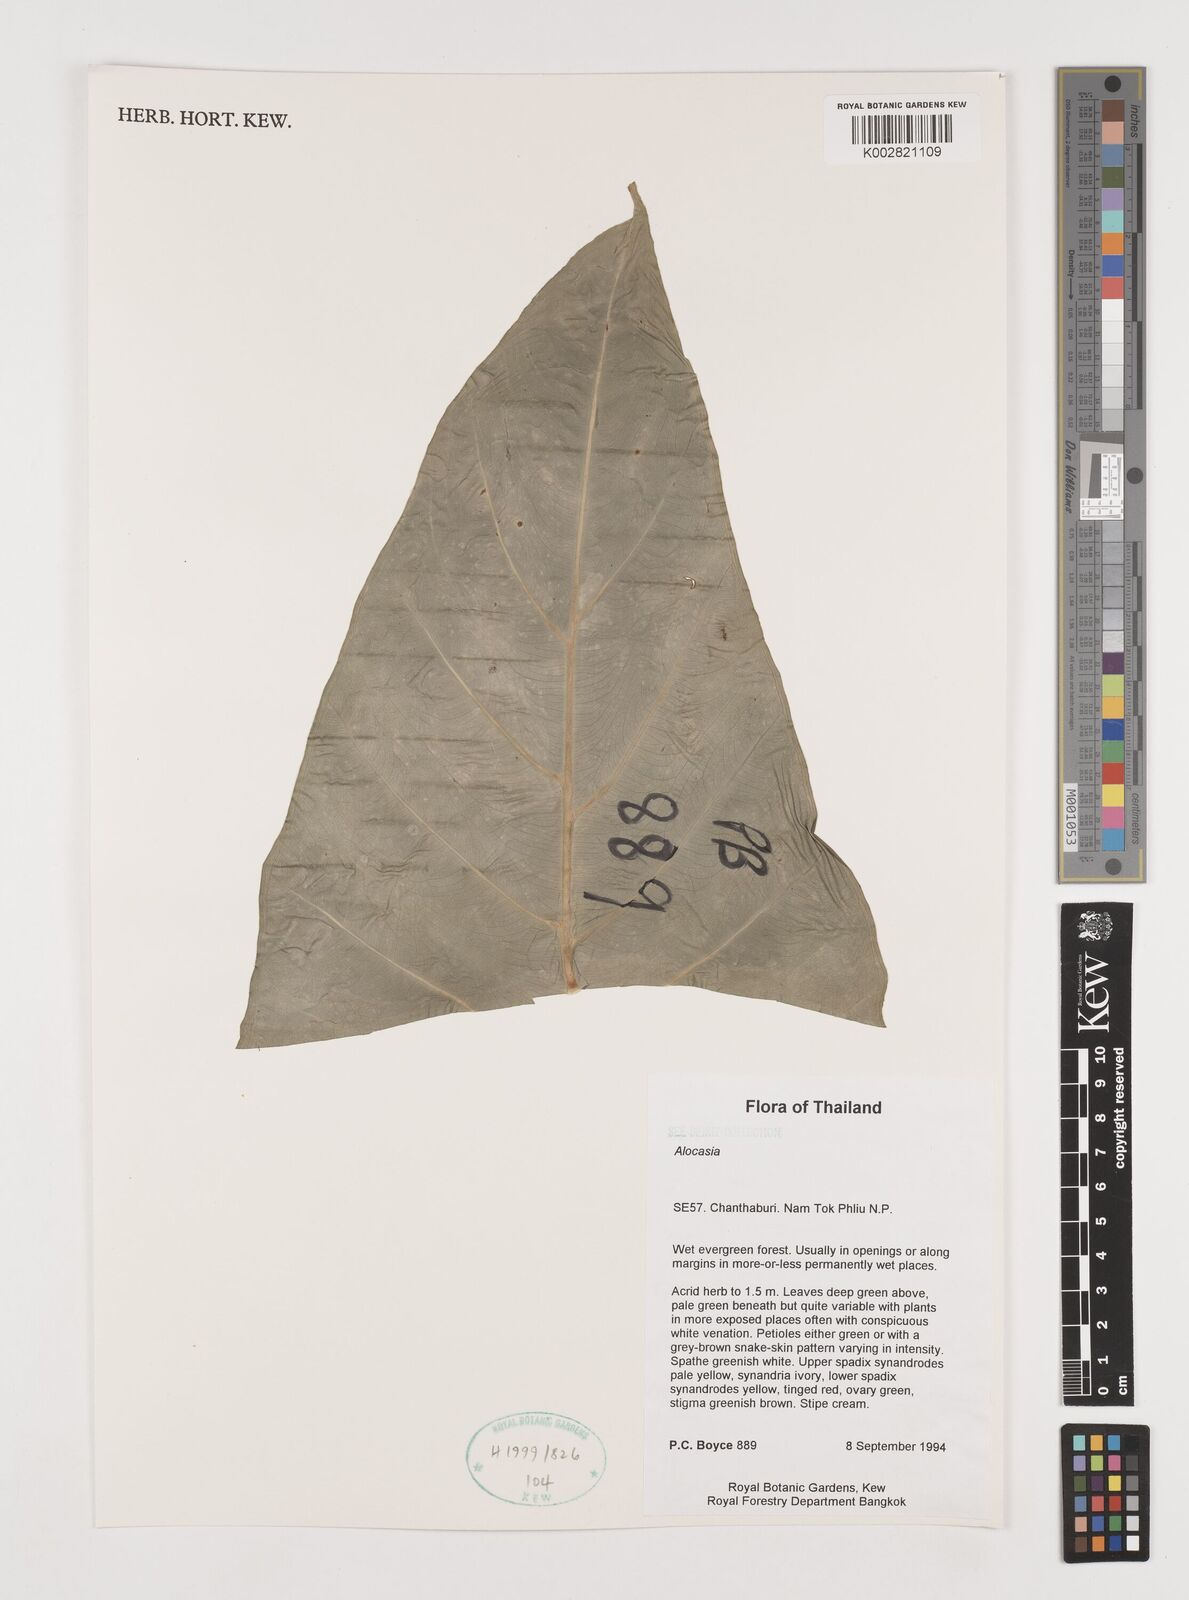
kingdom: Plantae
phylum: Tracheophyta
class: Liliopsida
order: Alismatales
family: Araceae
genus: Alocasia
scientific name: Alocasia
